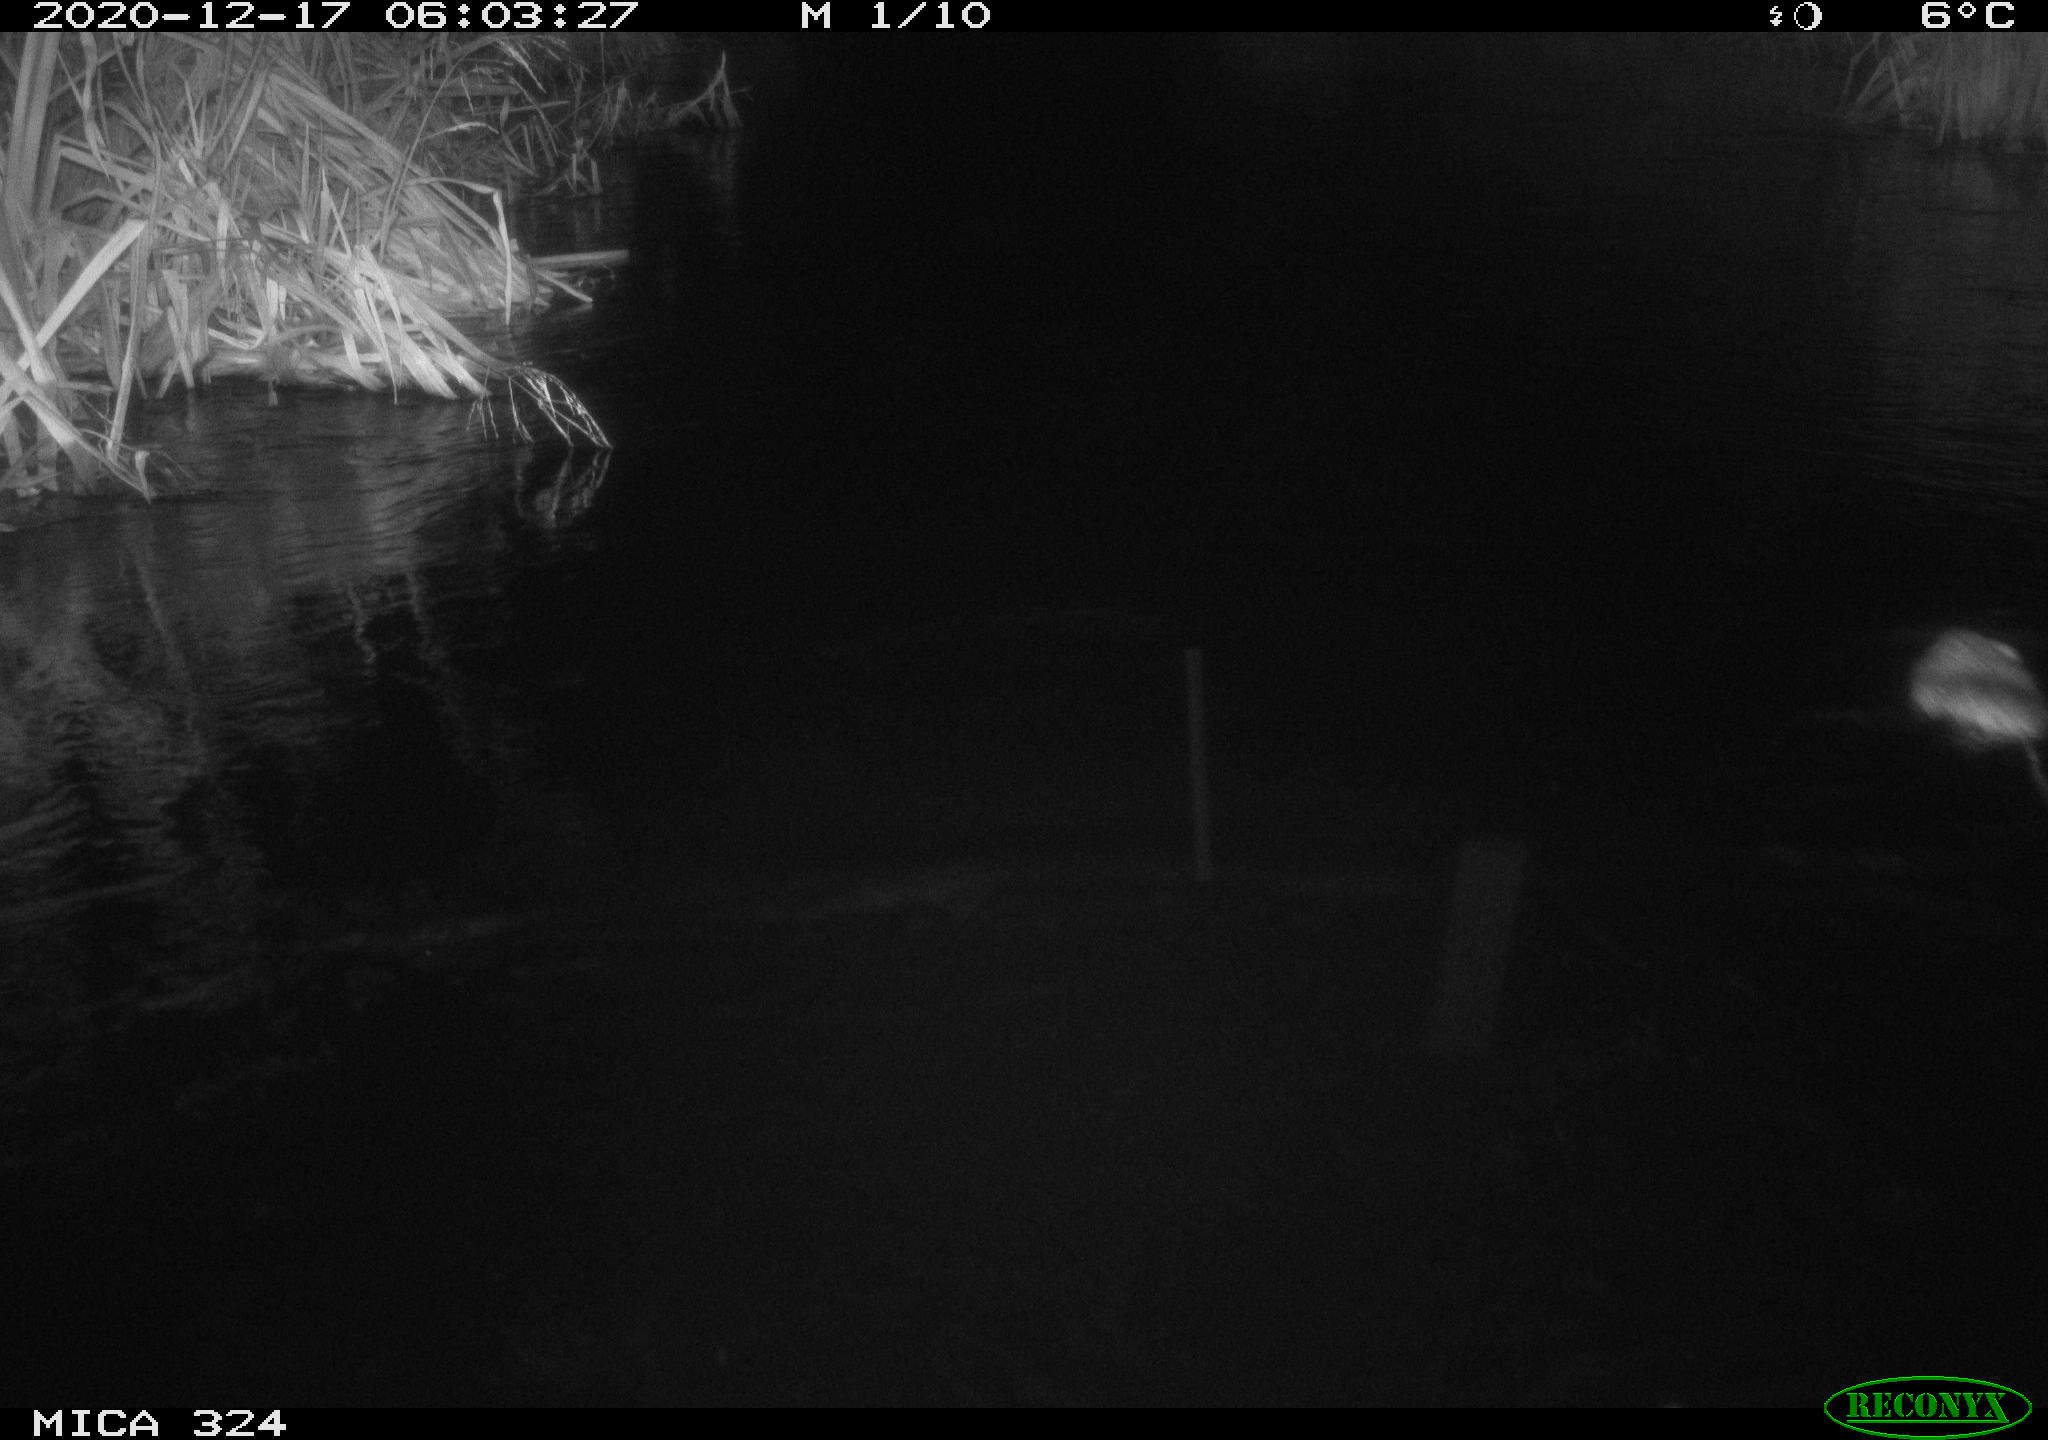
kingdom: Animalia
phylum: Chordata
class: Mammalia
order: Rodentia
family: Cricetidae
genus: Ondatra
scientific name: Ondatra zibethicus
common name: Muskrat
